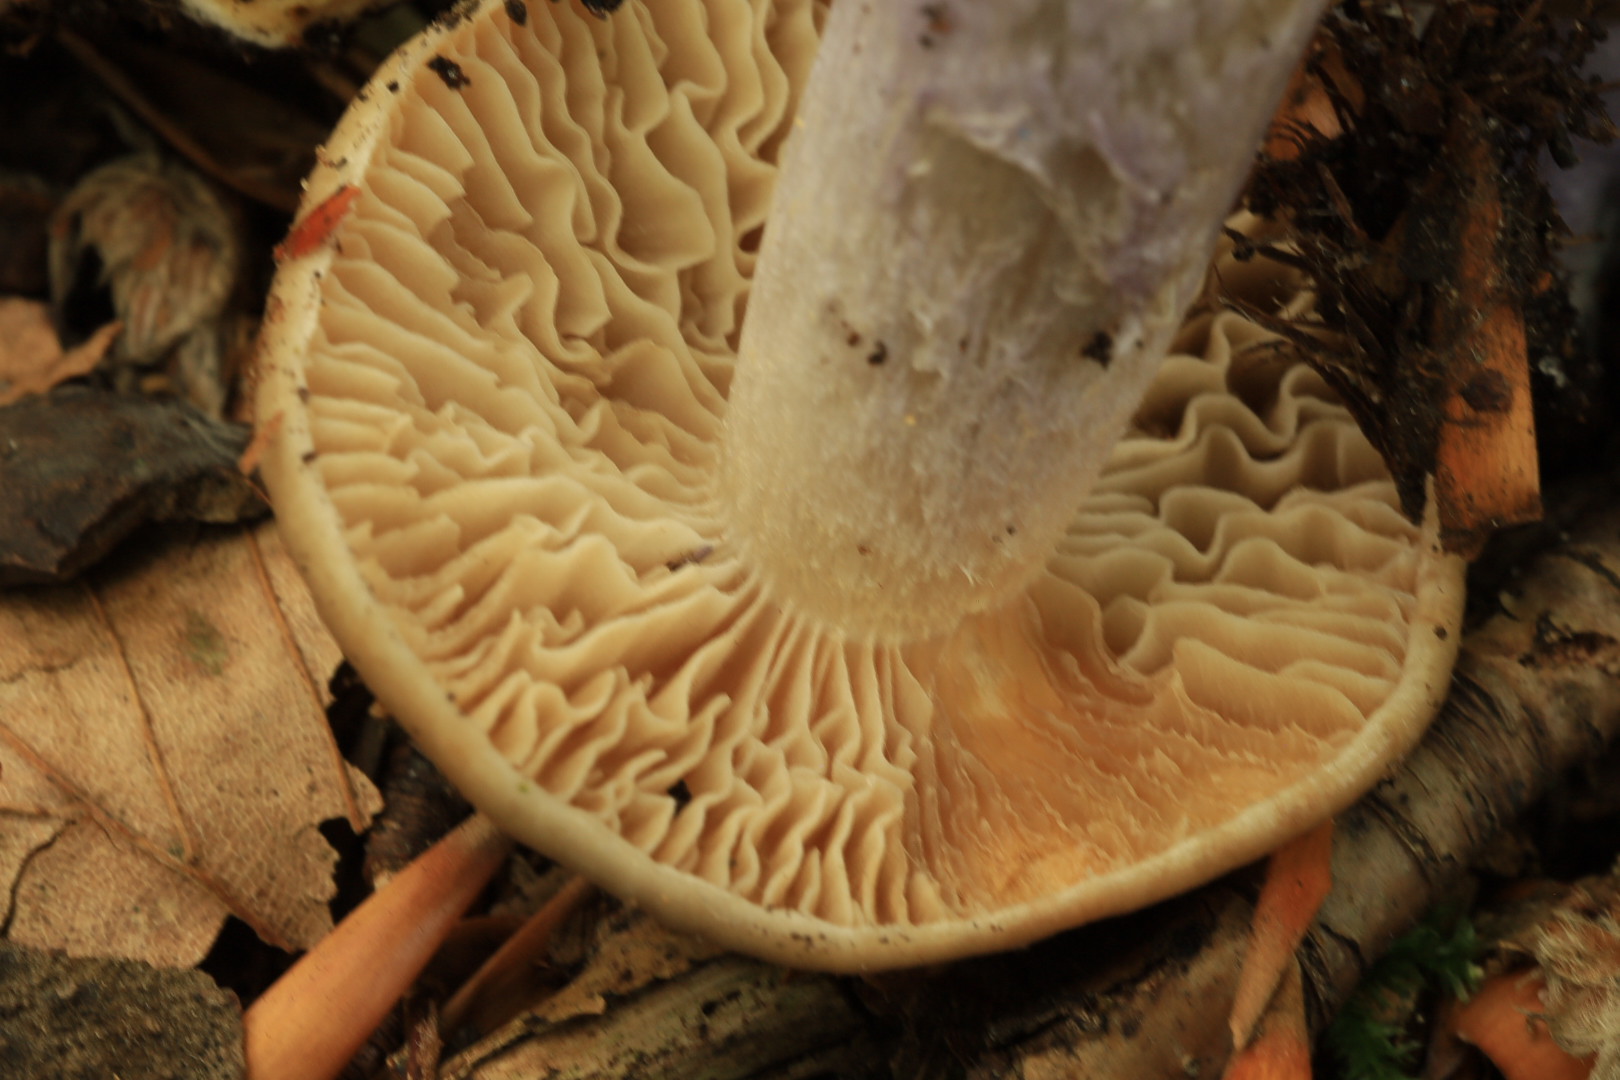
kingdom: Fungi
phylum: Basidiomycota
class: Agaricomycetes
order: Agaricales
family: Cortinariaceae
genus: Cortinarius
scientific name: Cortinarius
